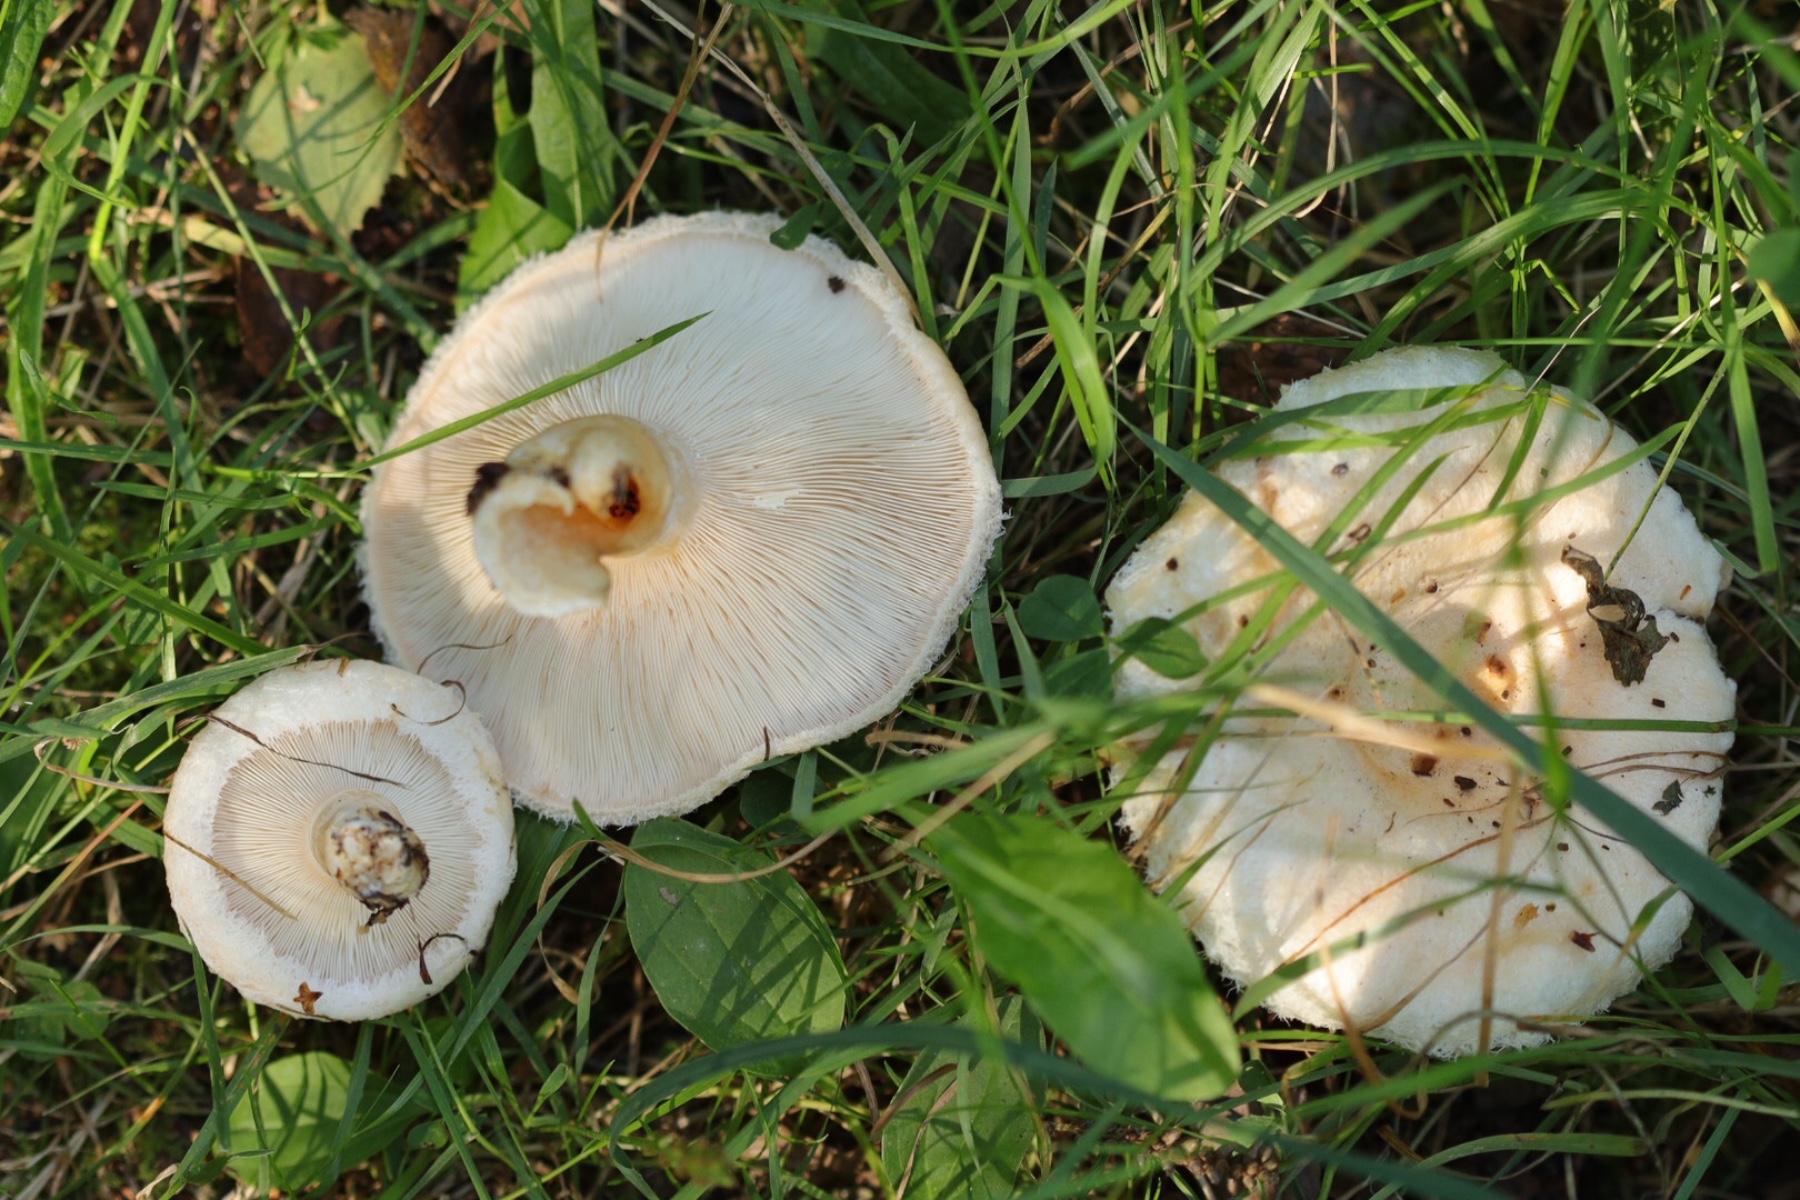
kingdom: Fungi
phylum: Basidiomycota
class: Agaricomycetes
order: Russulales
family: Russulaceae
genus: Lactarius
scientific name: Lactarius pubescens
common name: dunet mælkehat
